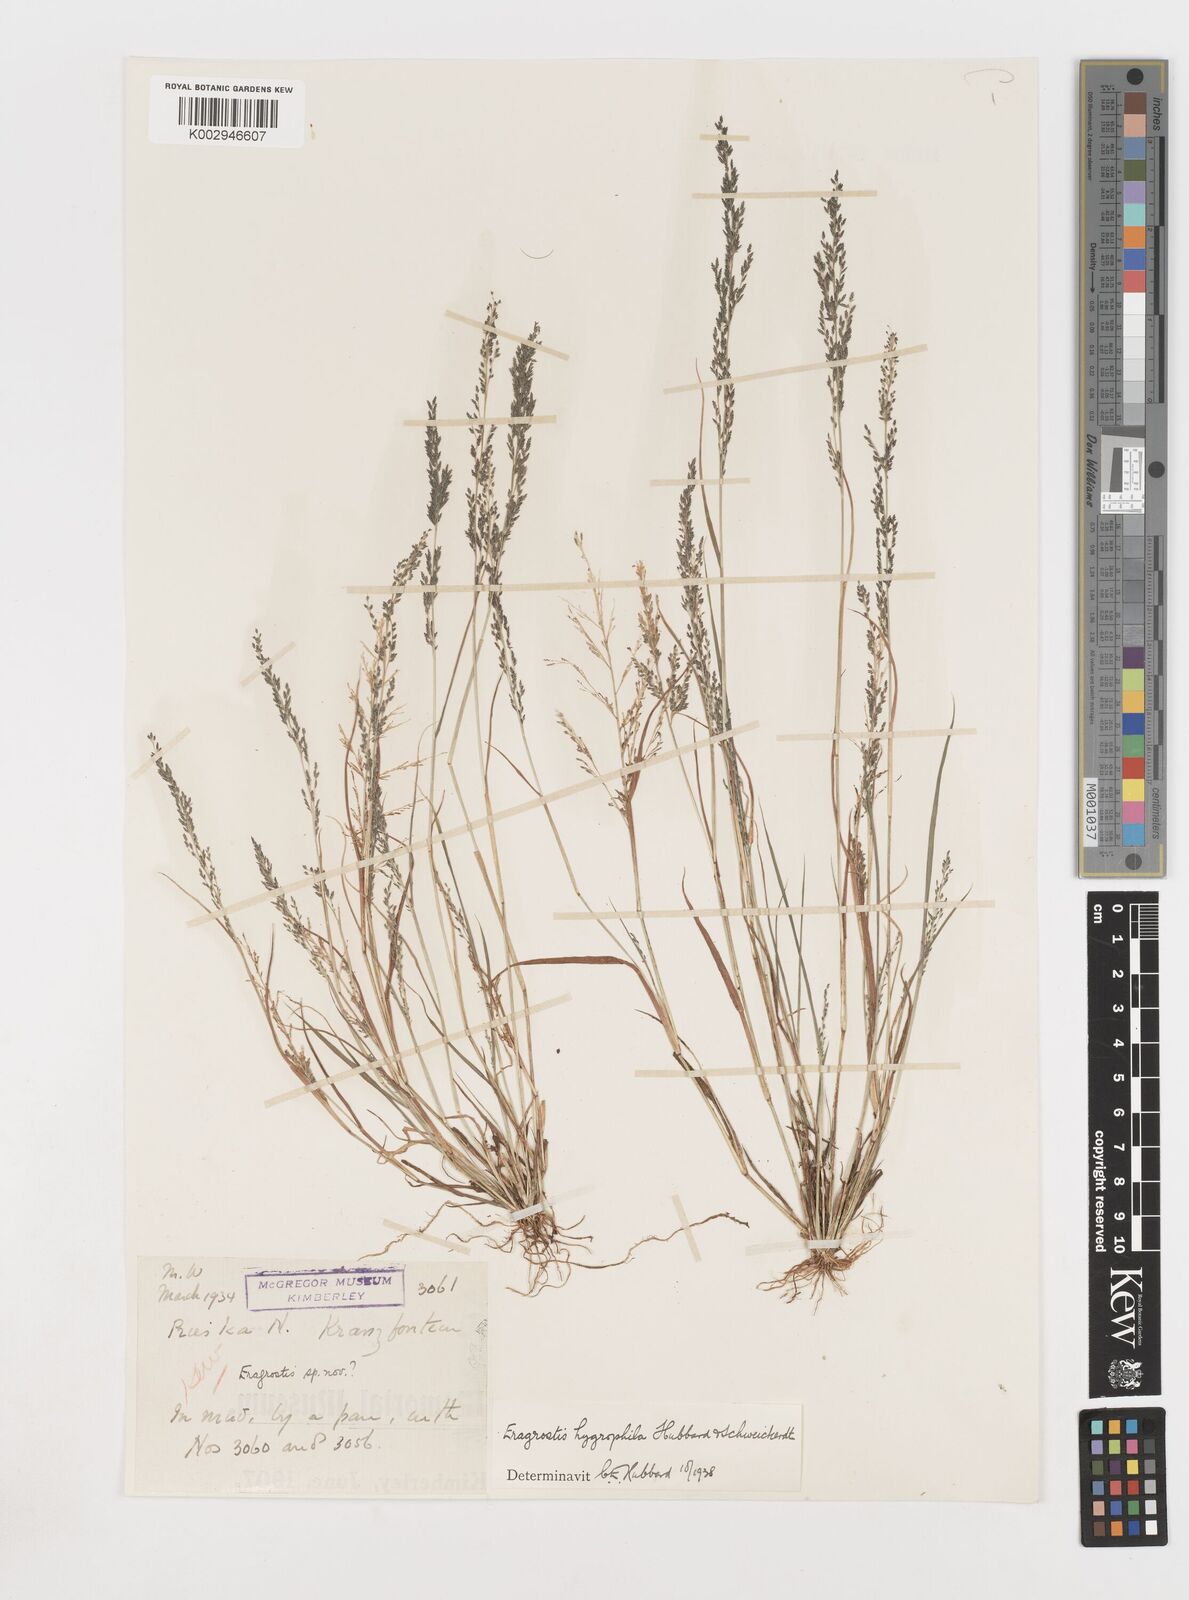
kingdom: Plantae
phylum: Tracheophyta
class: Liliopsida
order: Poales
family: Poaceae
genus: Eragrostis
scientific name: Eragrostis homomalla
